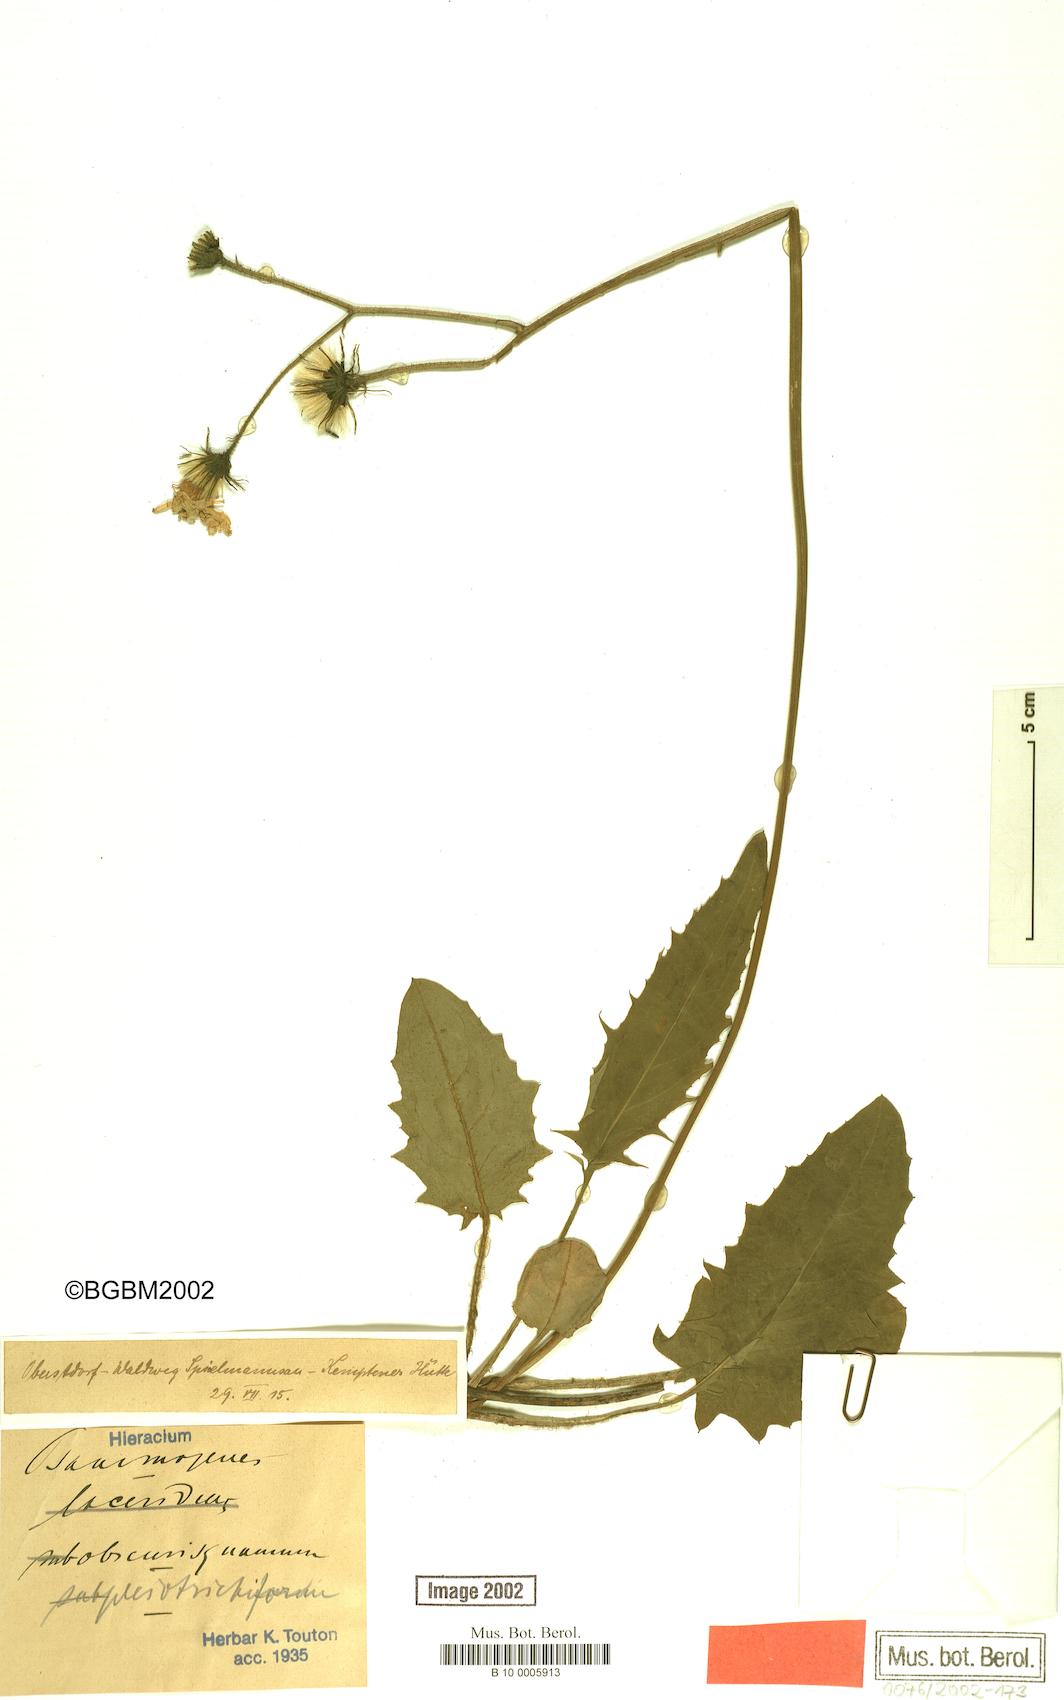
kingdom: Plantae
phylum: Tracheophyta
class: Magnoliopsida
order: Asterales
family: Asteraceae
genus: Hieracium
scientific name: Hieracium psammogenes
